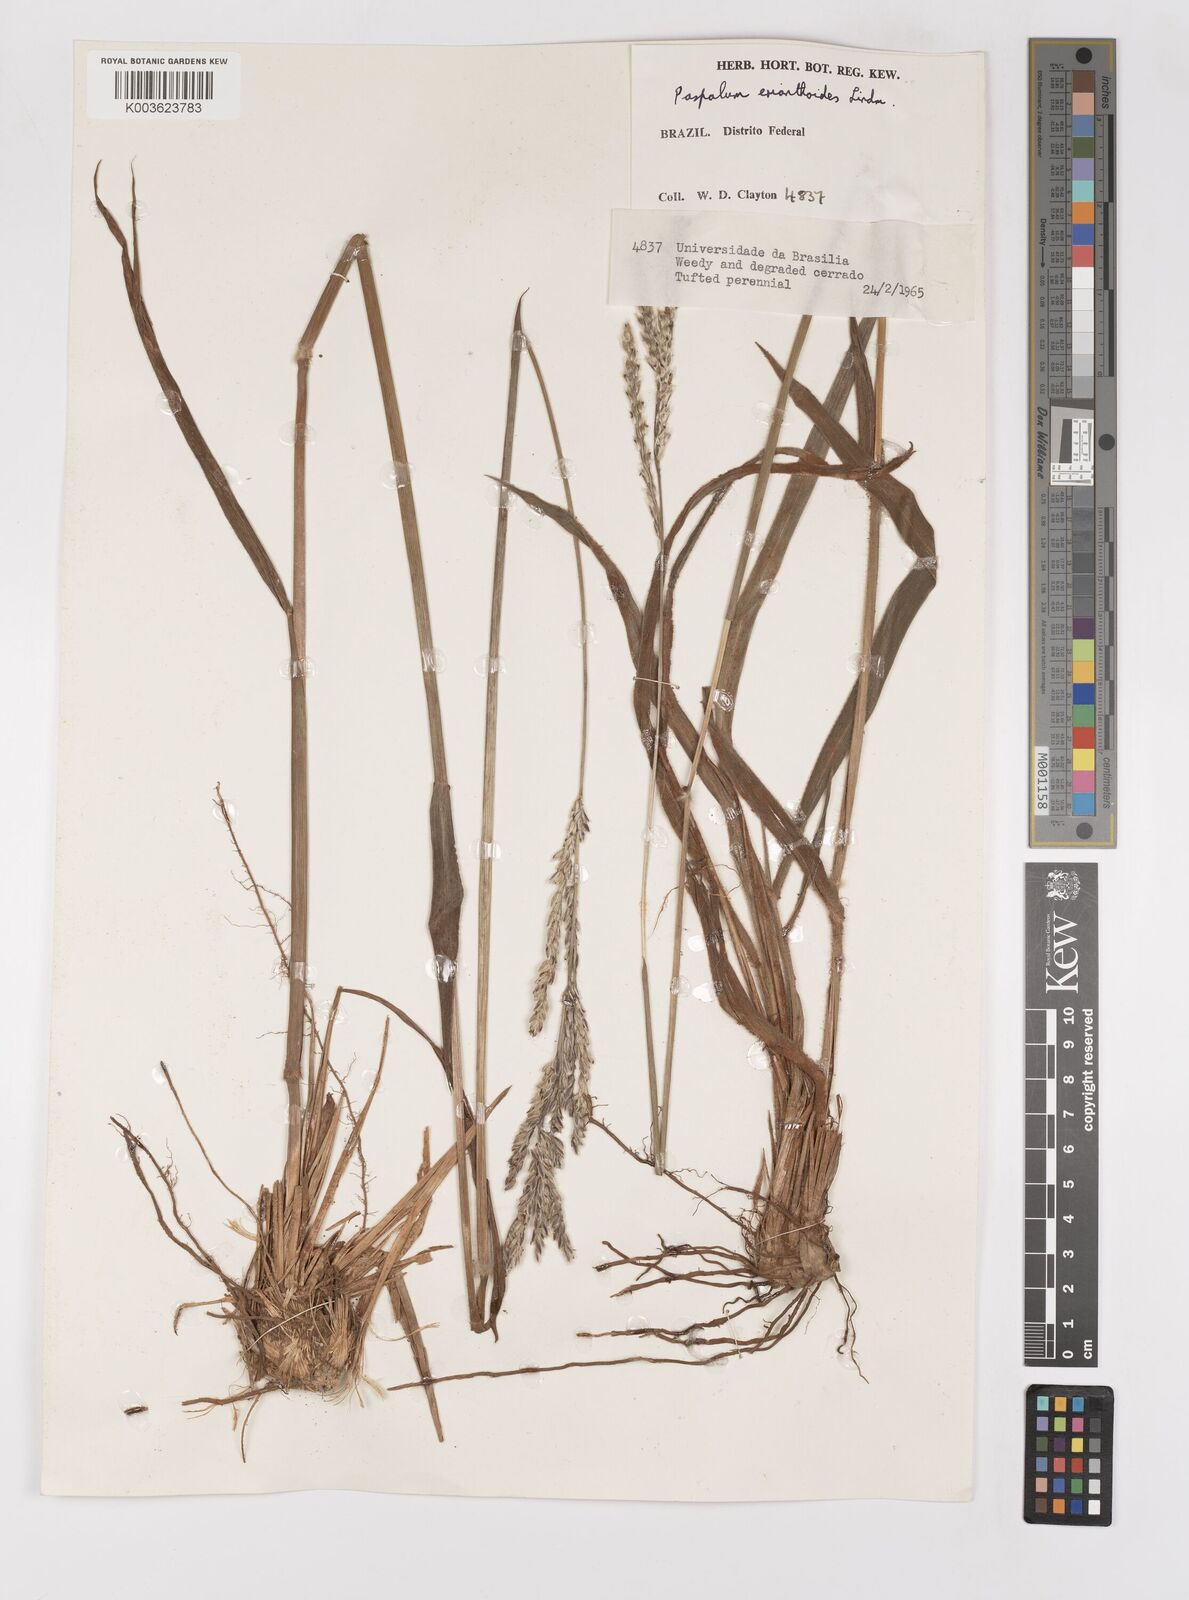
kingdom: Plantae
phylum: Tracheophyta
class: Liliopsida
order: Poales
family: Poaceae
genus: Paspalum
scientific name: Paspalum erianthum
